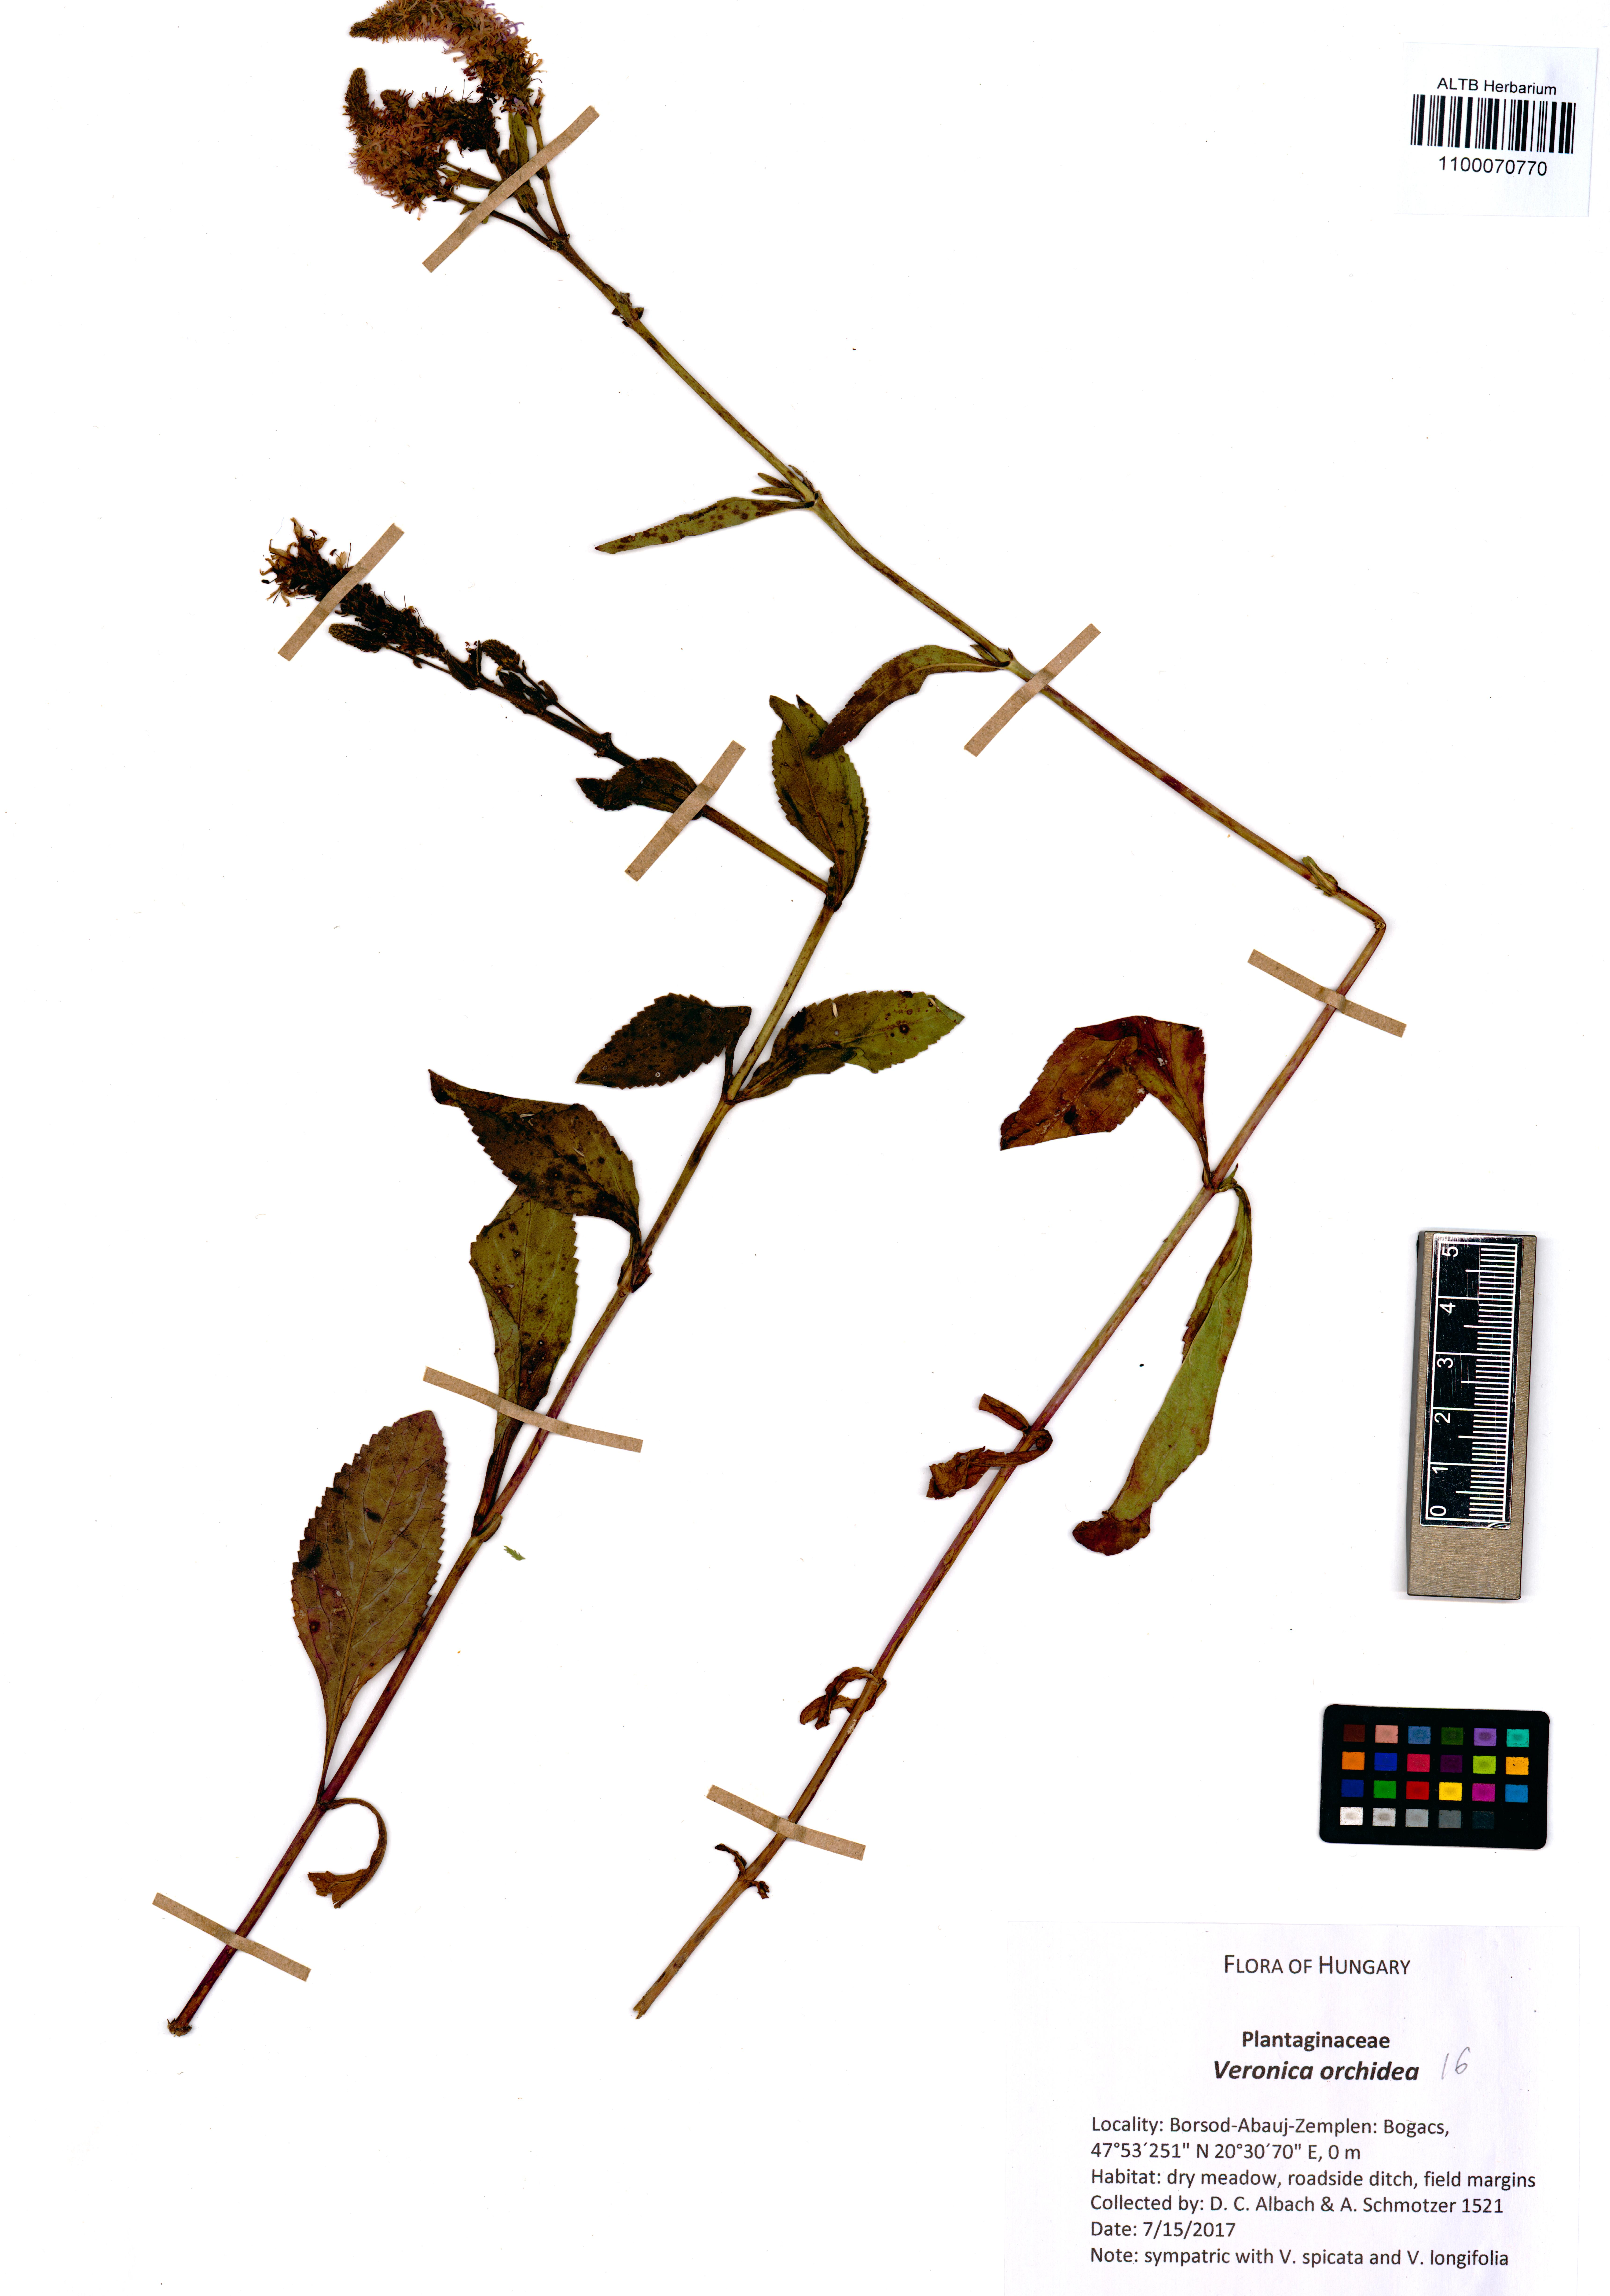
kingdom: Plantae
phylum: Tracheophyta
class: Magnoliopsida
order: Lamiales
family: Plantaginaceae
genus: Veronica
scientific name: Veronica orchidea
